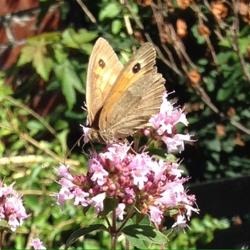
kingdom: Animalia
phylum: Arthropoda
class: Insecta
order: Lepidoptera
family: Nymphalidae
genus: Maniola
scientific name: Maniola jurtina
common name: Græsrandøje
